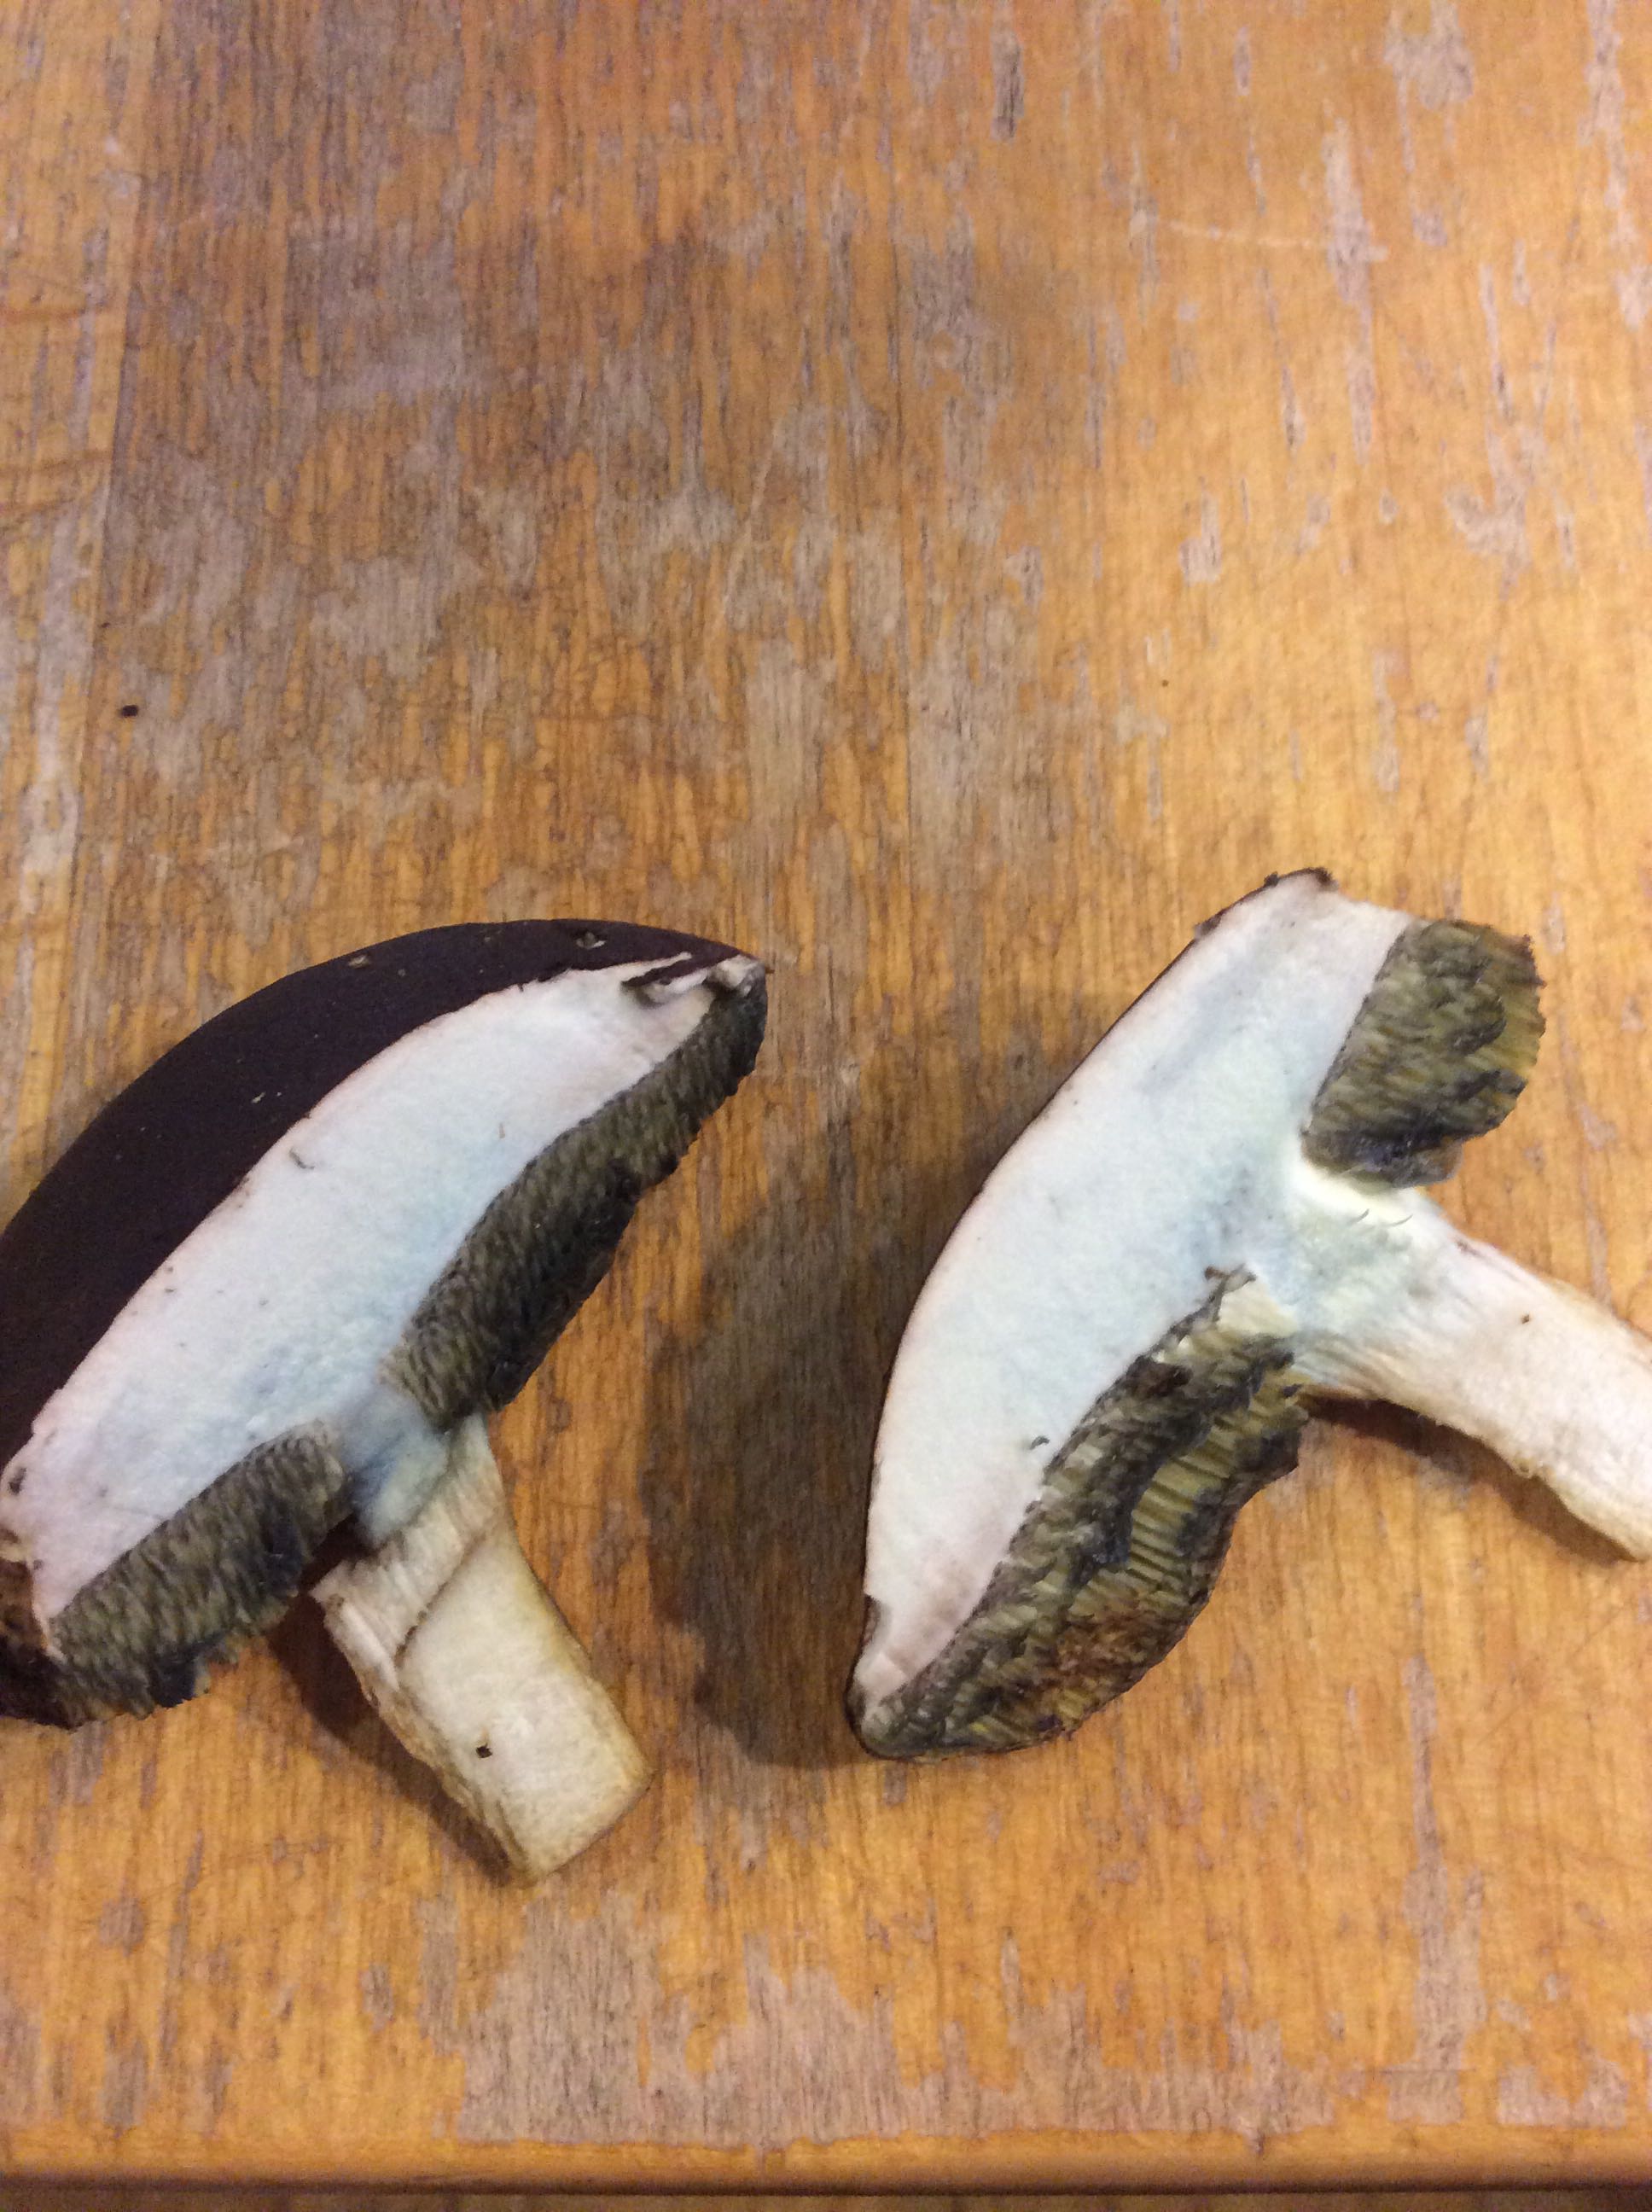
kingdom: Fungi
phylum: Basidiomycota
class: Agaricomycetes
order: Boletales
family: Boletaceae
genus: Imleria
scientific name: Imleria badia
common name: brunstokket rørhat
